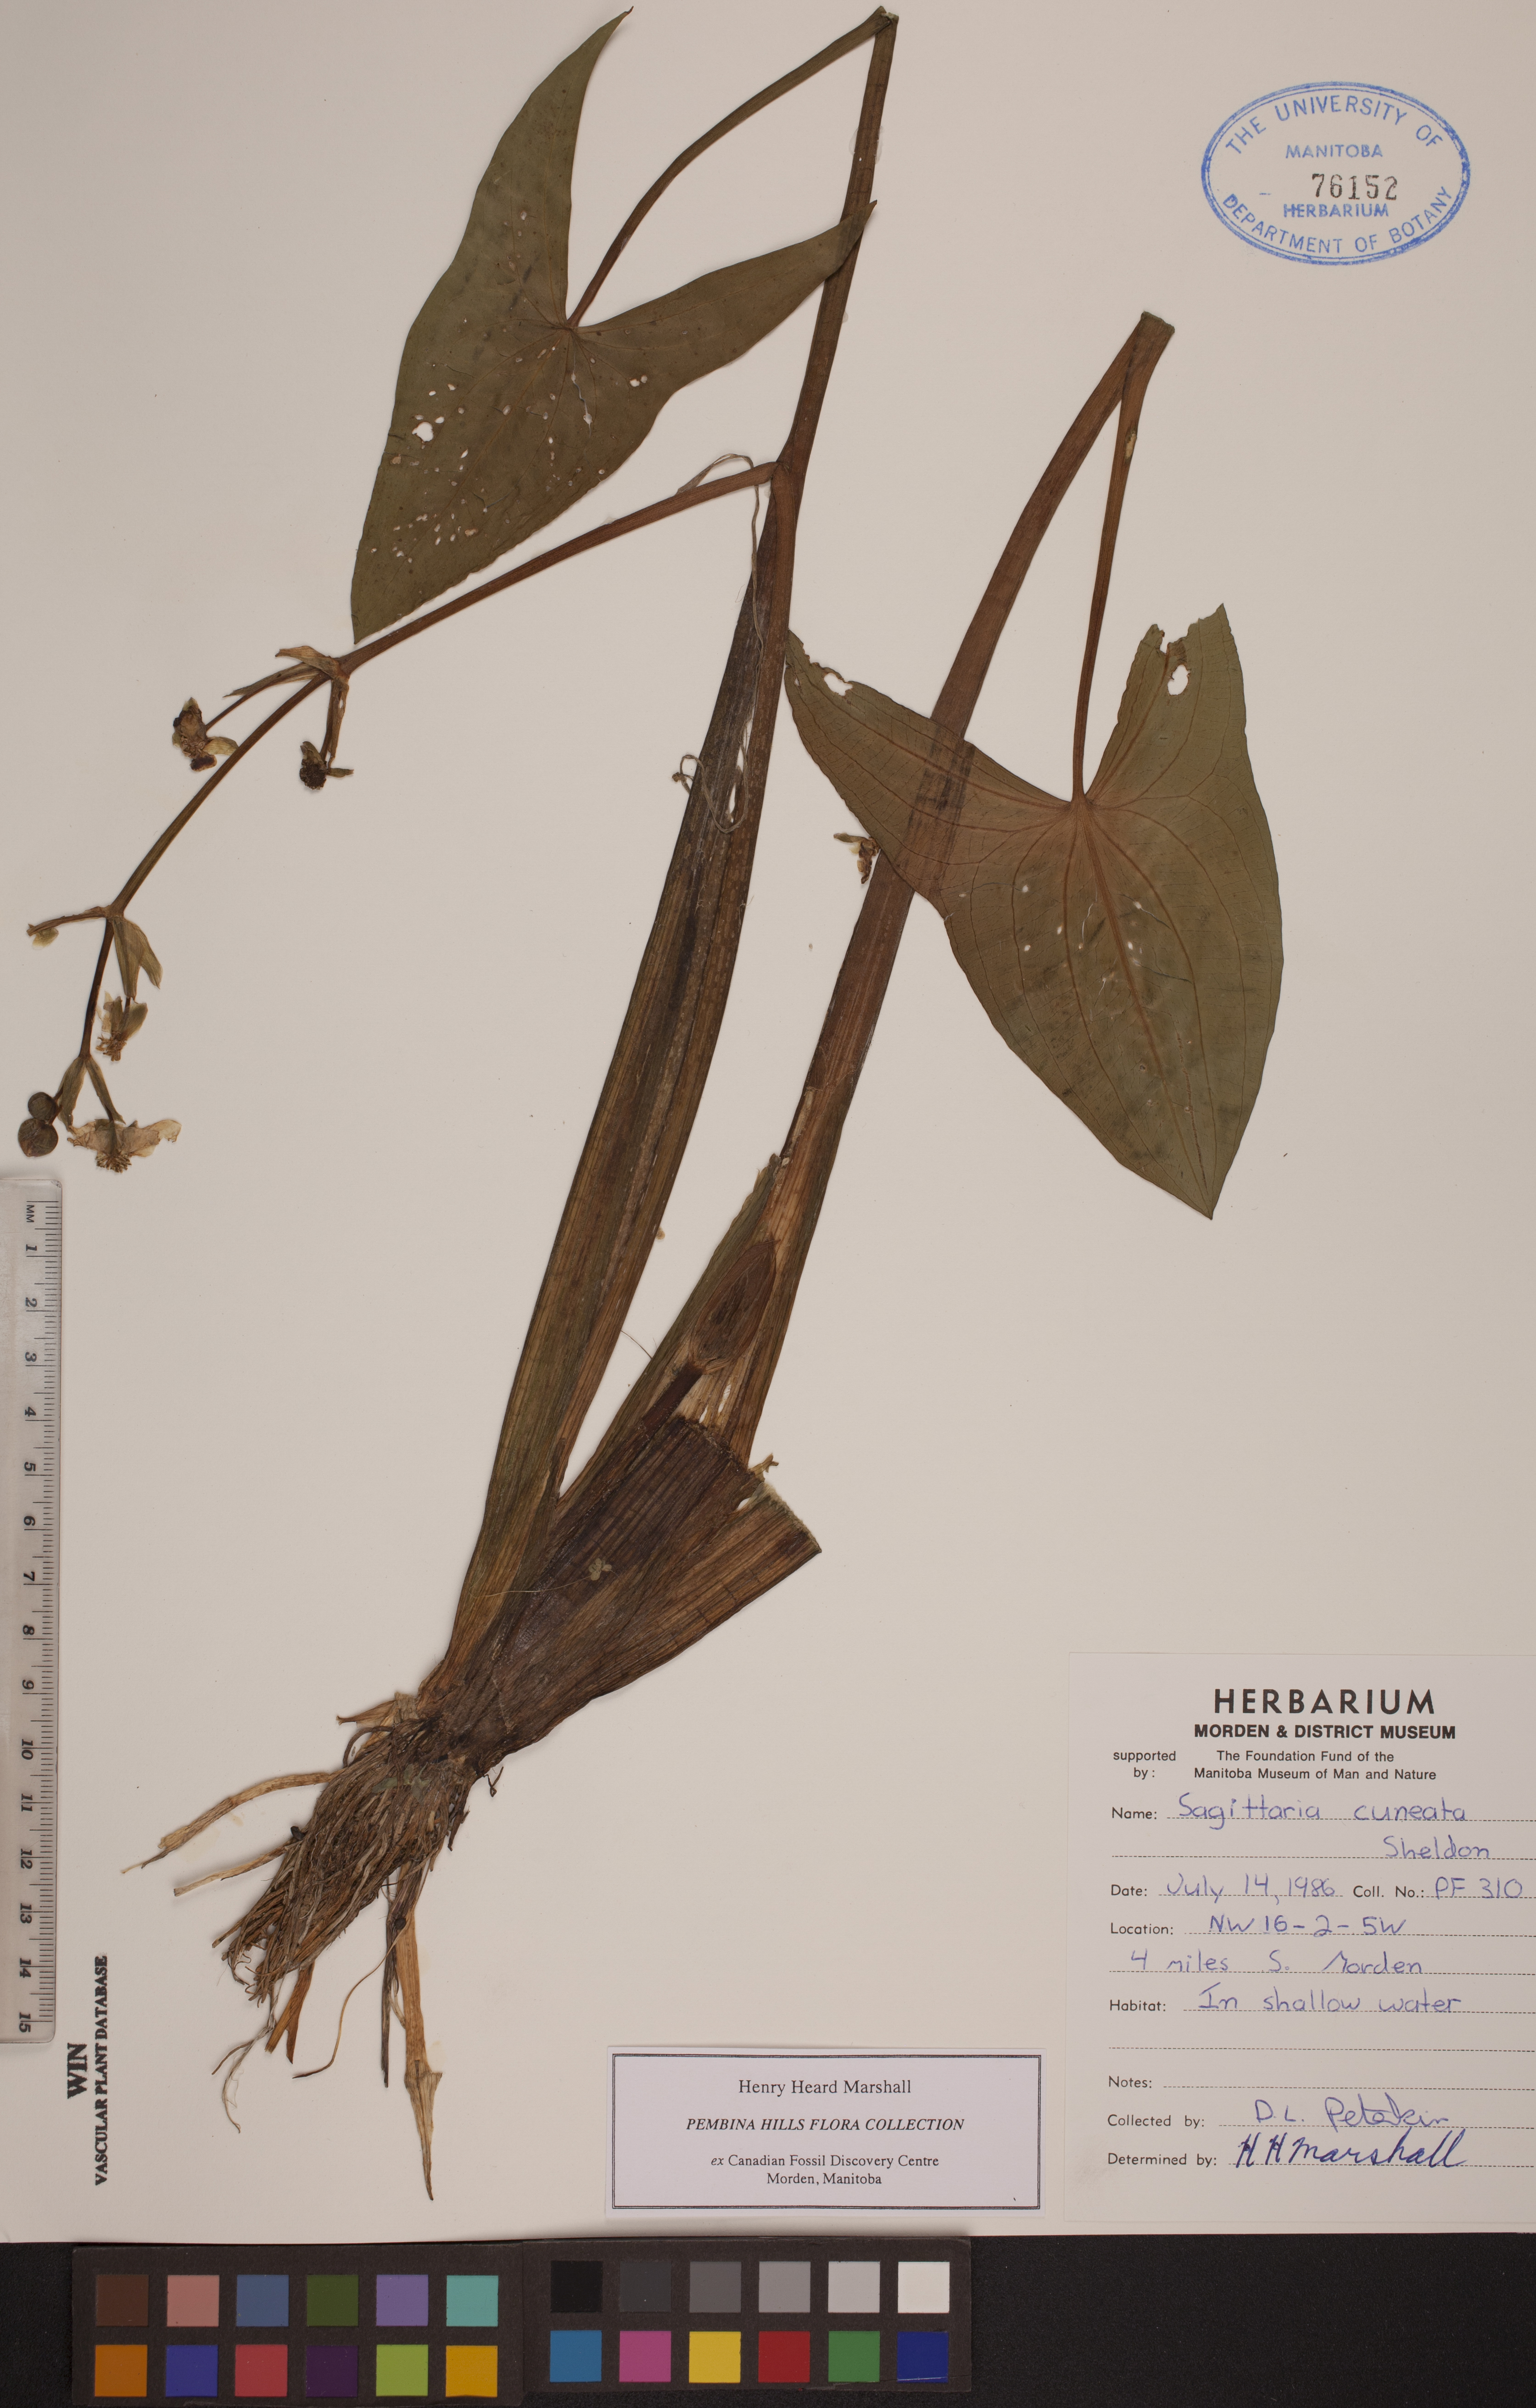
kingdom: Plantae
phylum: Tracheophyta
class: Liliopsida
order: Alismatales
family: Alismataceae
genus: Sagittaria
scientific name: Sagittaria cuneata
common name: Northern arrowhead
